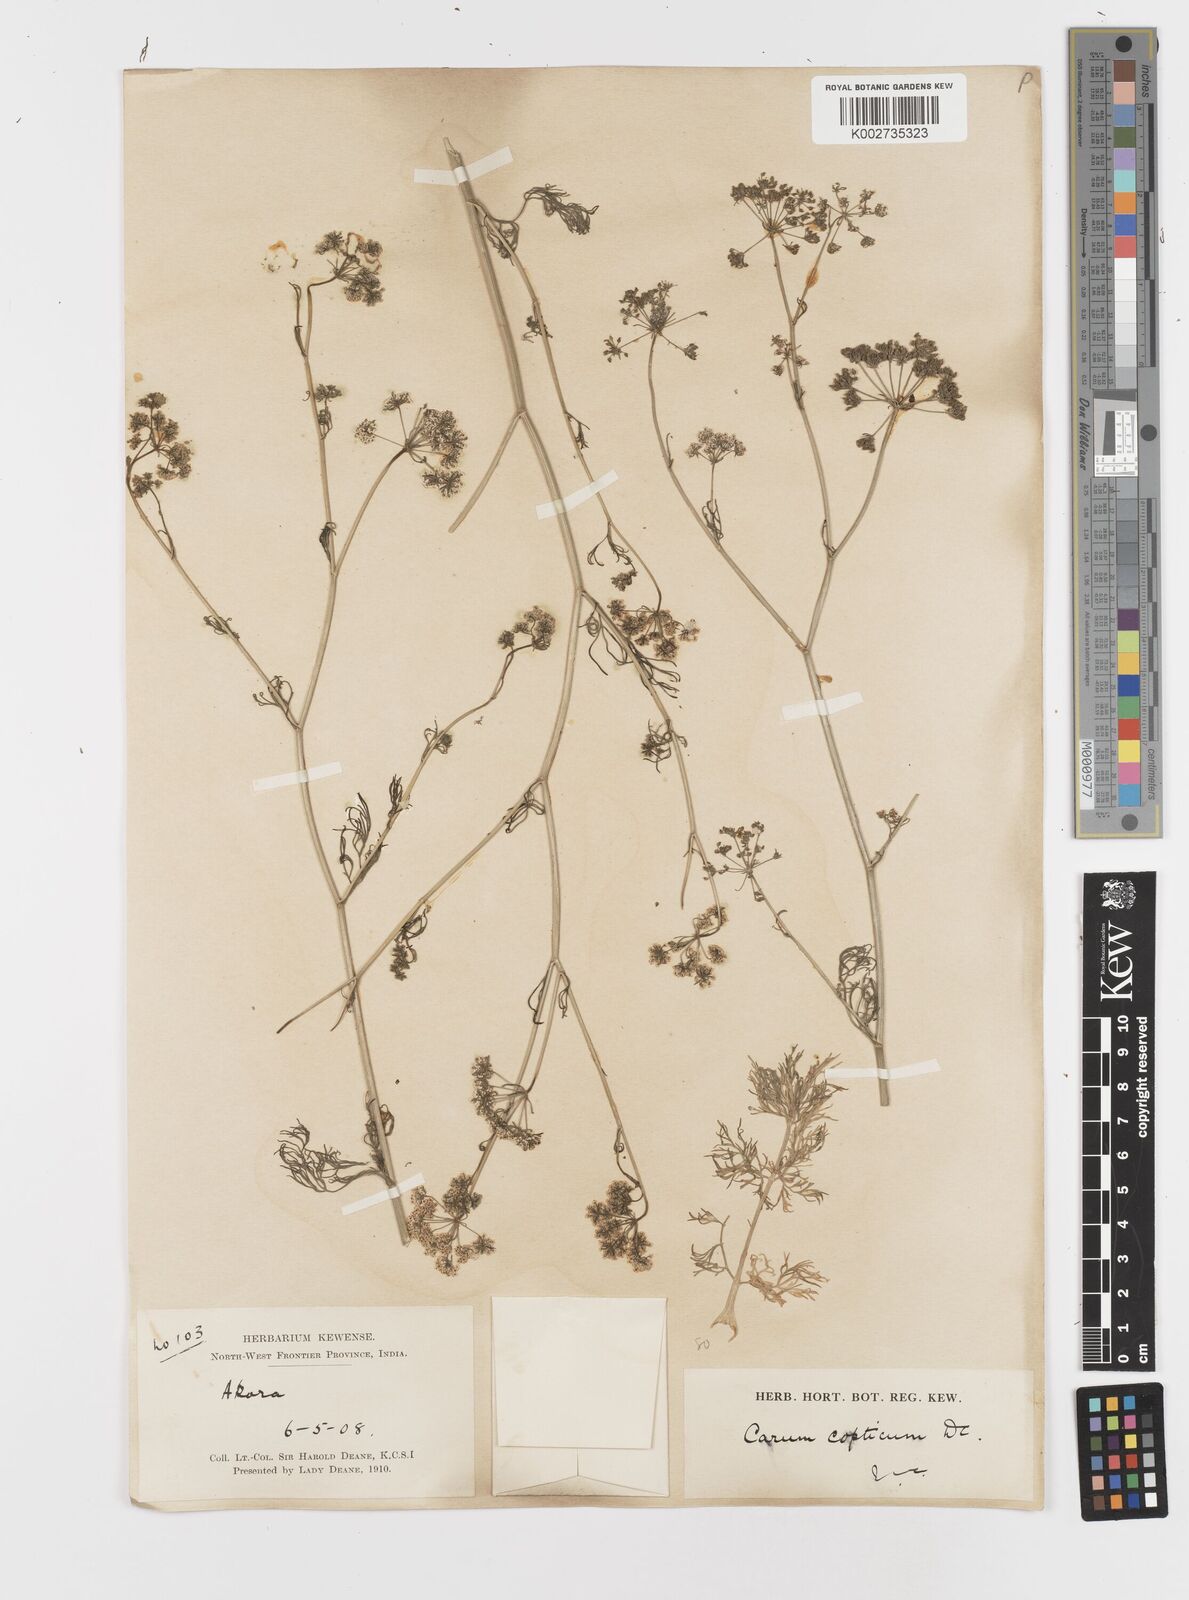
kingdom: Plantae
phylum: Tracheophyta
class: Magnoliopsida
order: Apiales
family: Apiaceae
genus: Trachyspermum
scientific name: Trachyspermum ammi
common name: Ajowan
